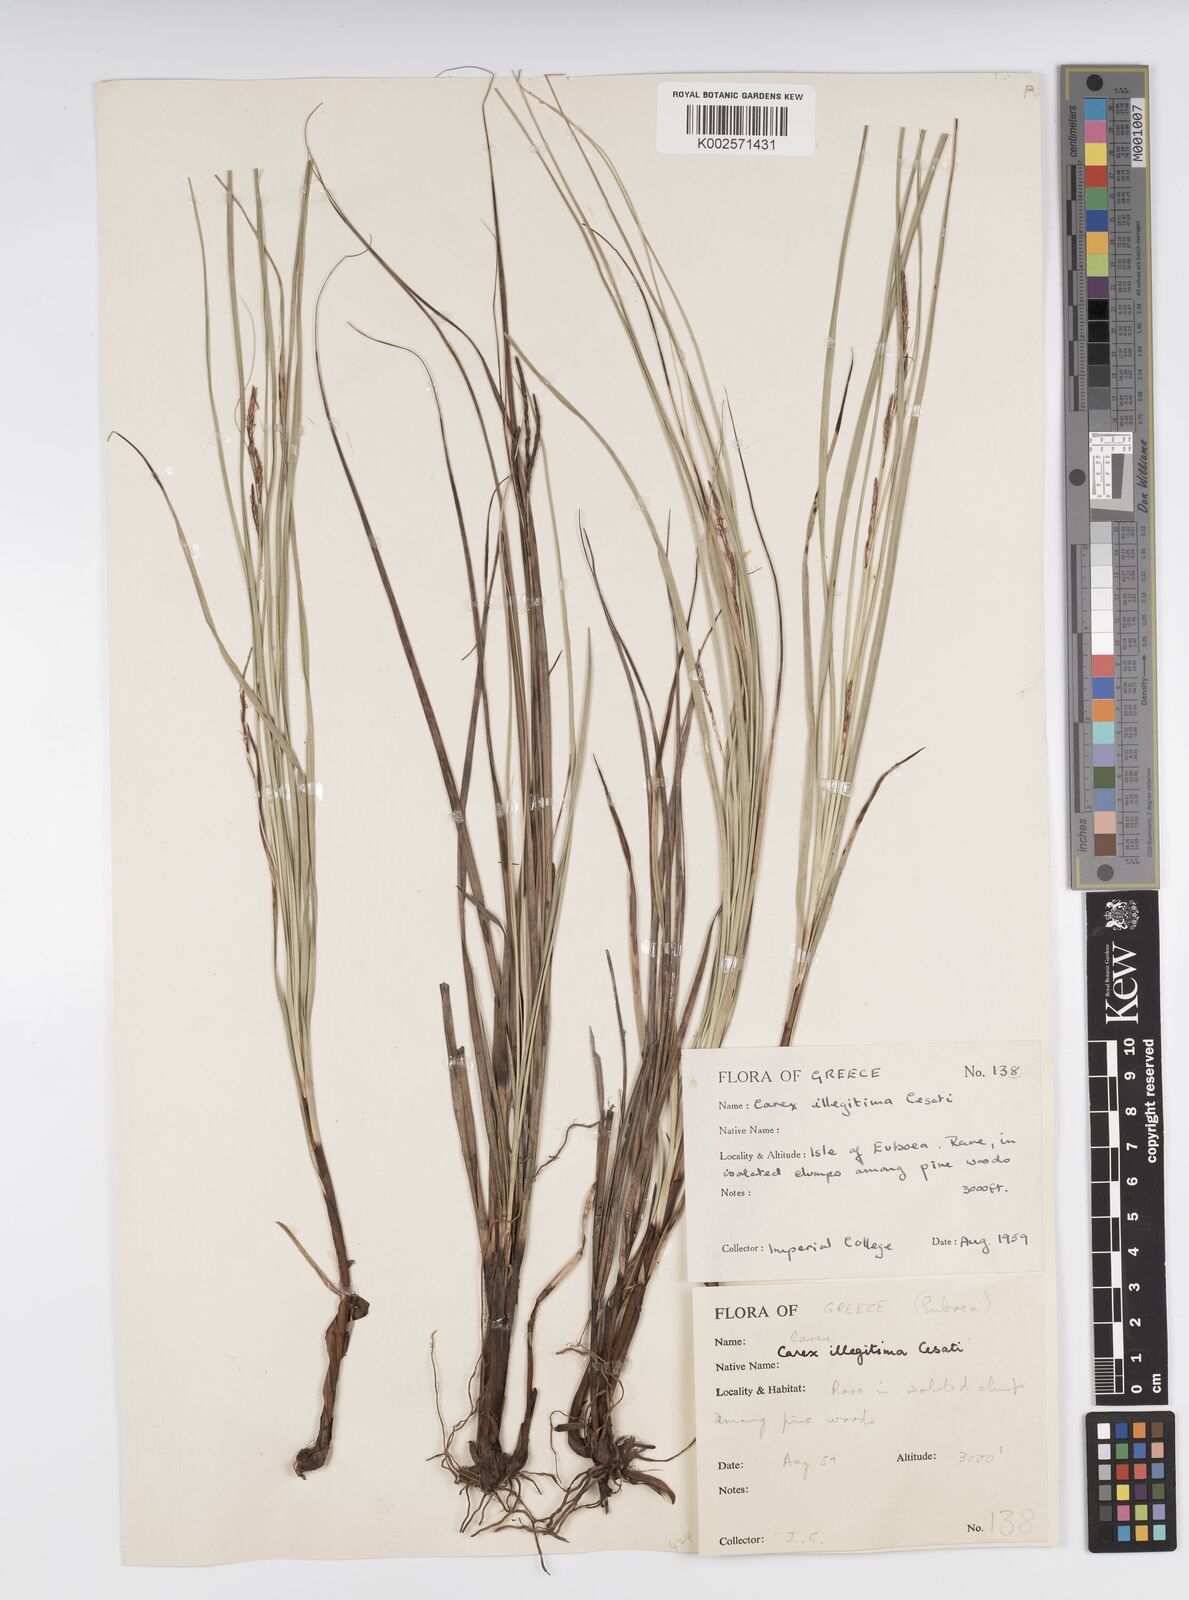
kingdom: Plantae
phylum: Tracheophyta
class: Liliopsida
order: Poales
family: Cyperaceae
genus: Carex
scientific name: Carex illegitima
